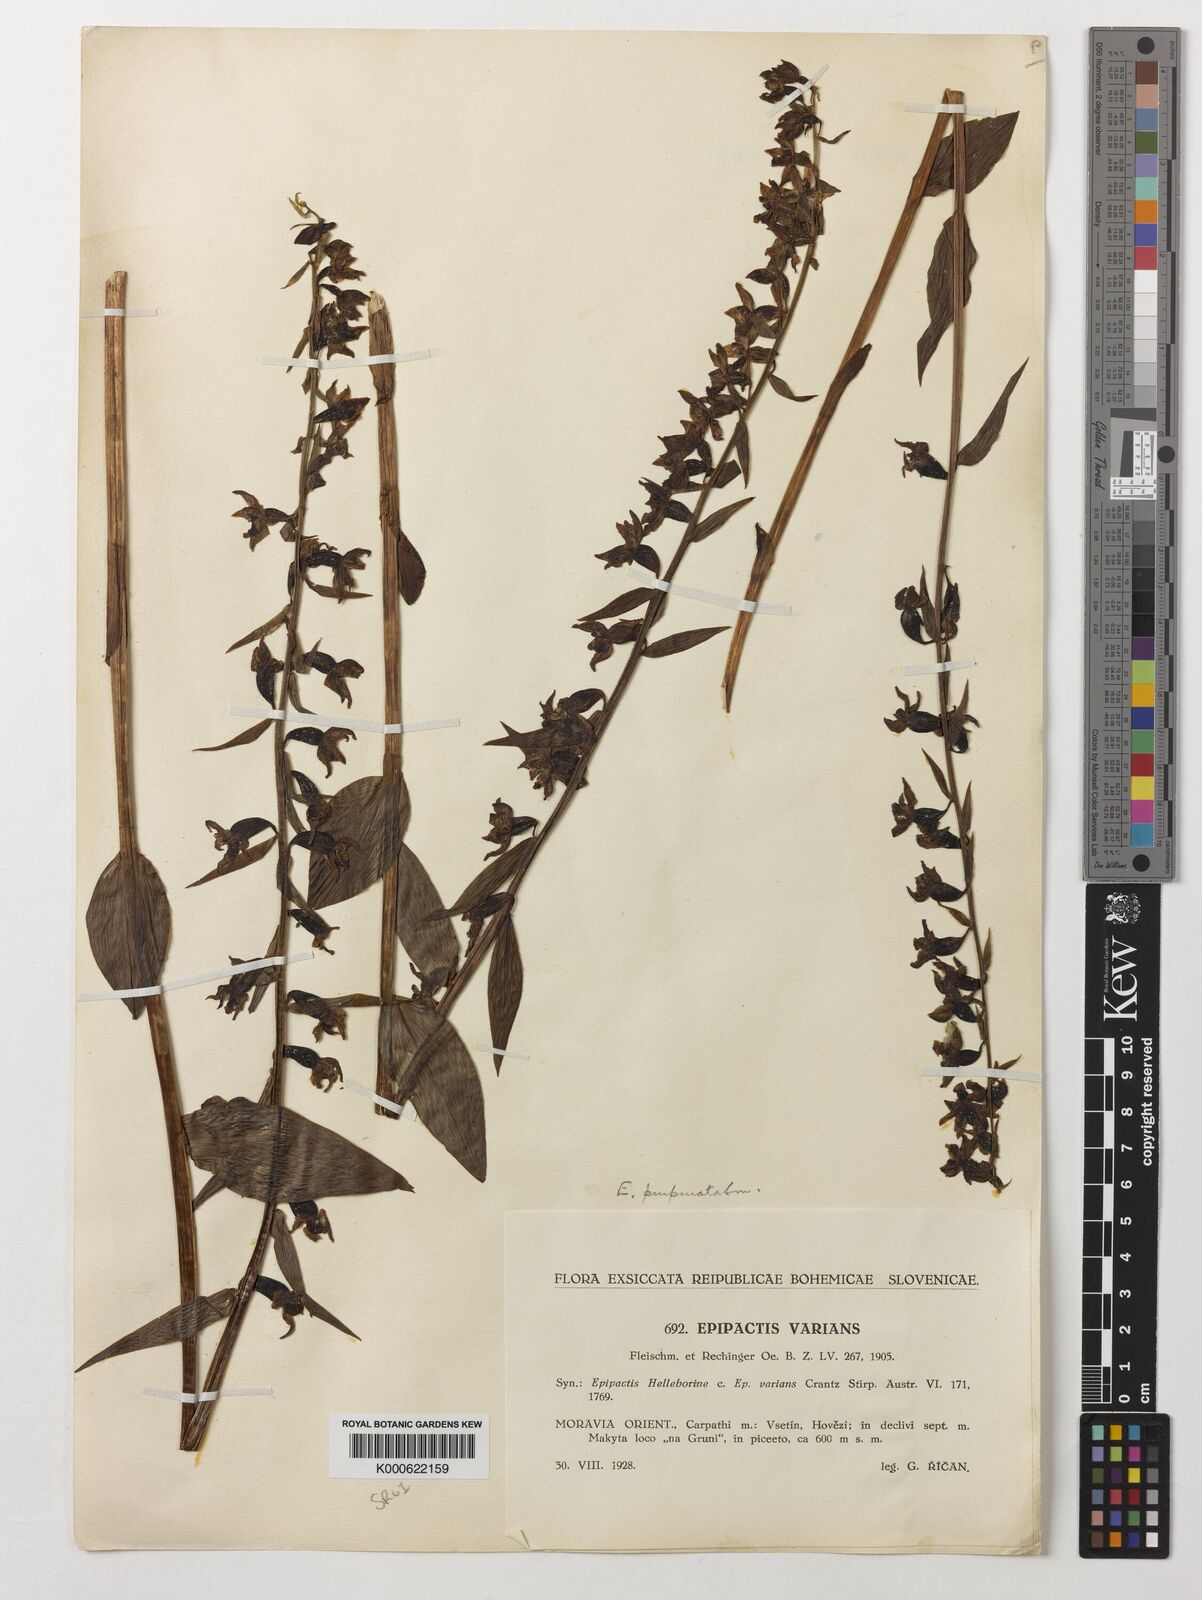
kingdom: Plantae
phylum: Tracheophyta
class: Liliopsida
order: Asparagales
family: Orchidaceae
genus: Epipactis
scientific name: Epipactis purpurata
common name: Violet helleborine
